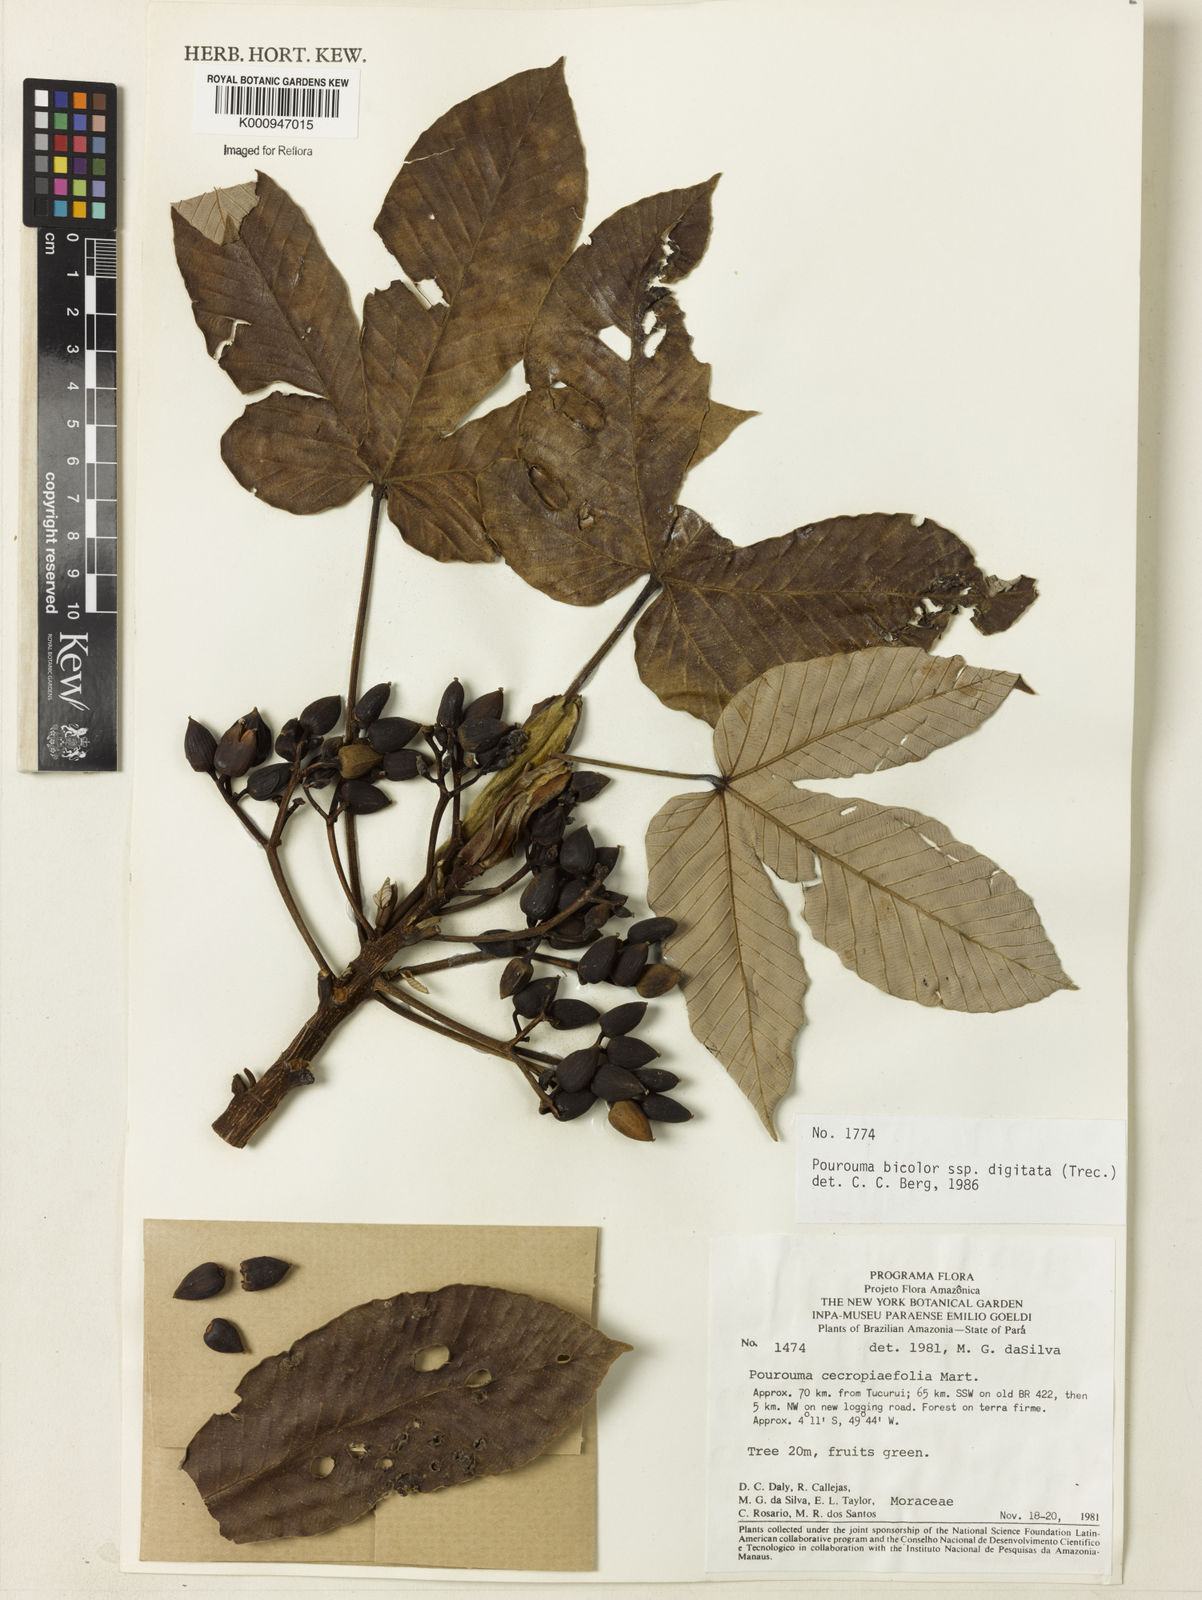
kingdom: Plantae
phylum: Tracheophyta
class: Magnoliopsida
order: Rosales
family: Urticaceae
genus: Pourouma
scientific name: Pourouma bicolor
